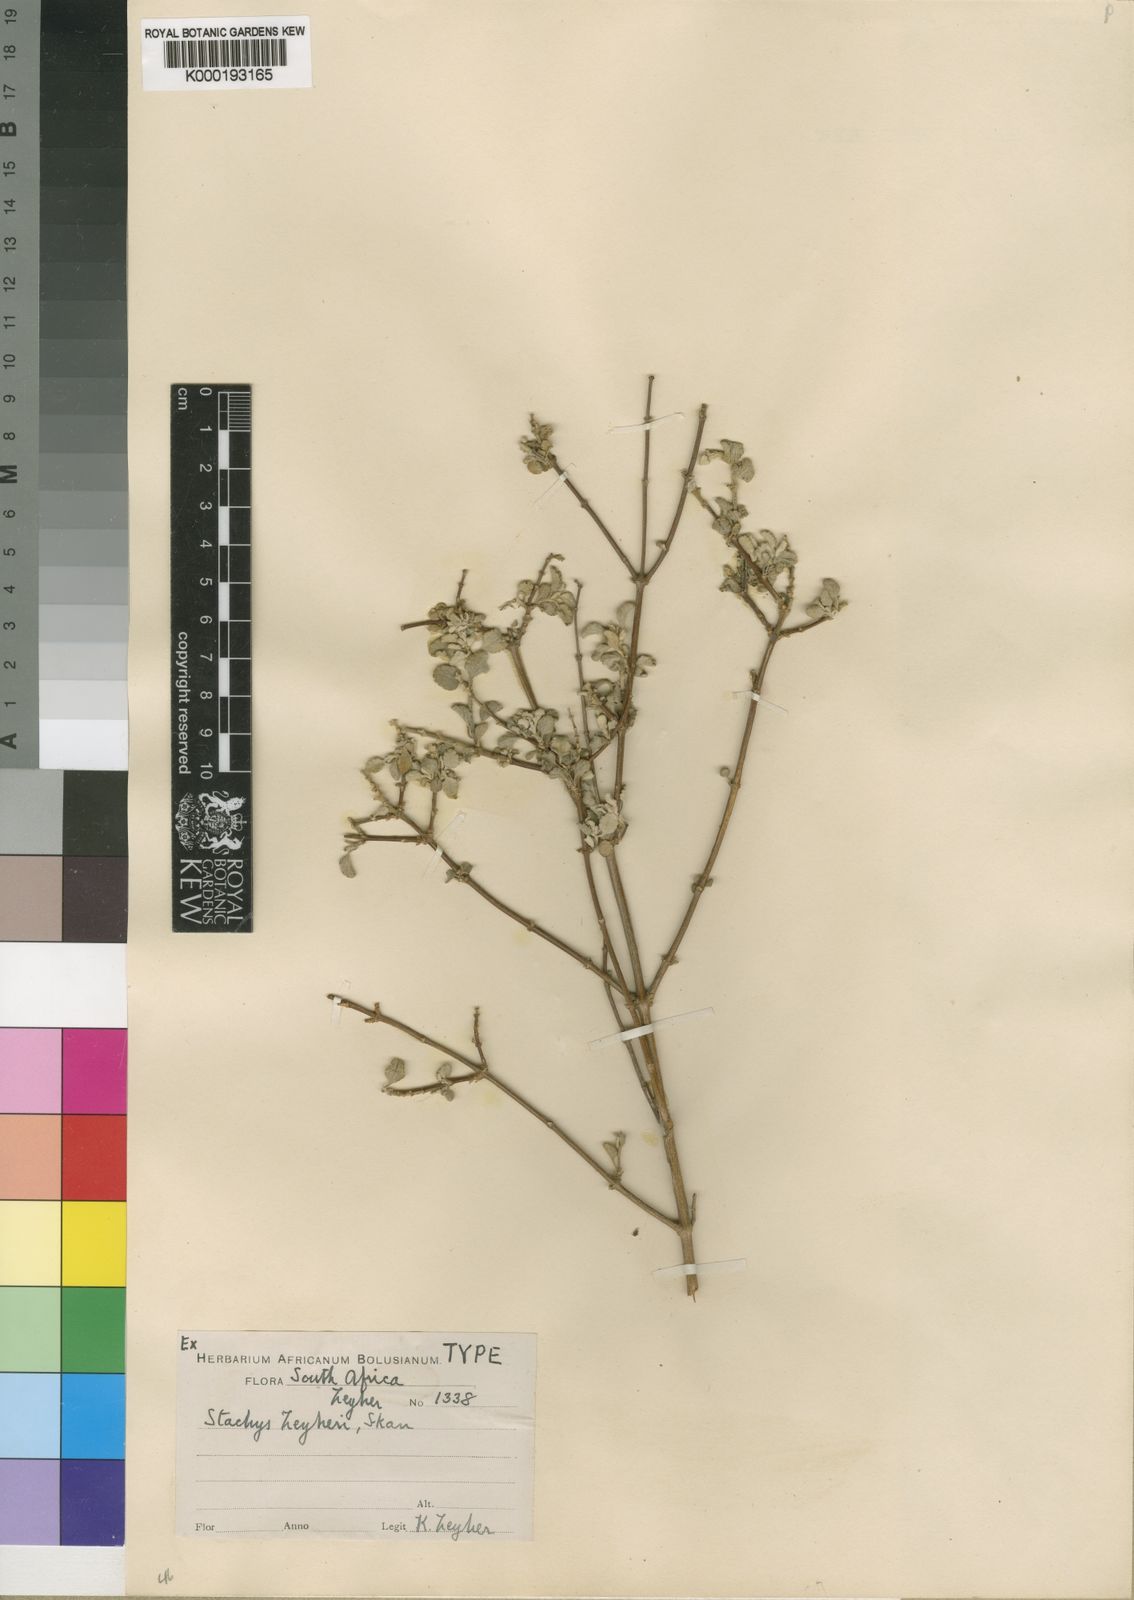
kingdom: Plantae
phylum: Tracheophyta
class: Magnoliopsida
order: Lamiales
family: Lamiaceae
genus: Stachys
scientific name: Stachys zeyheri
